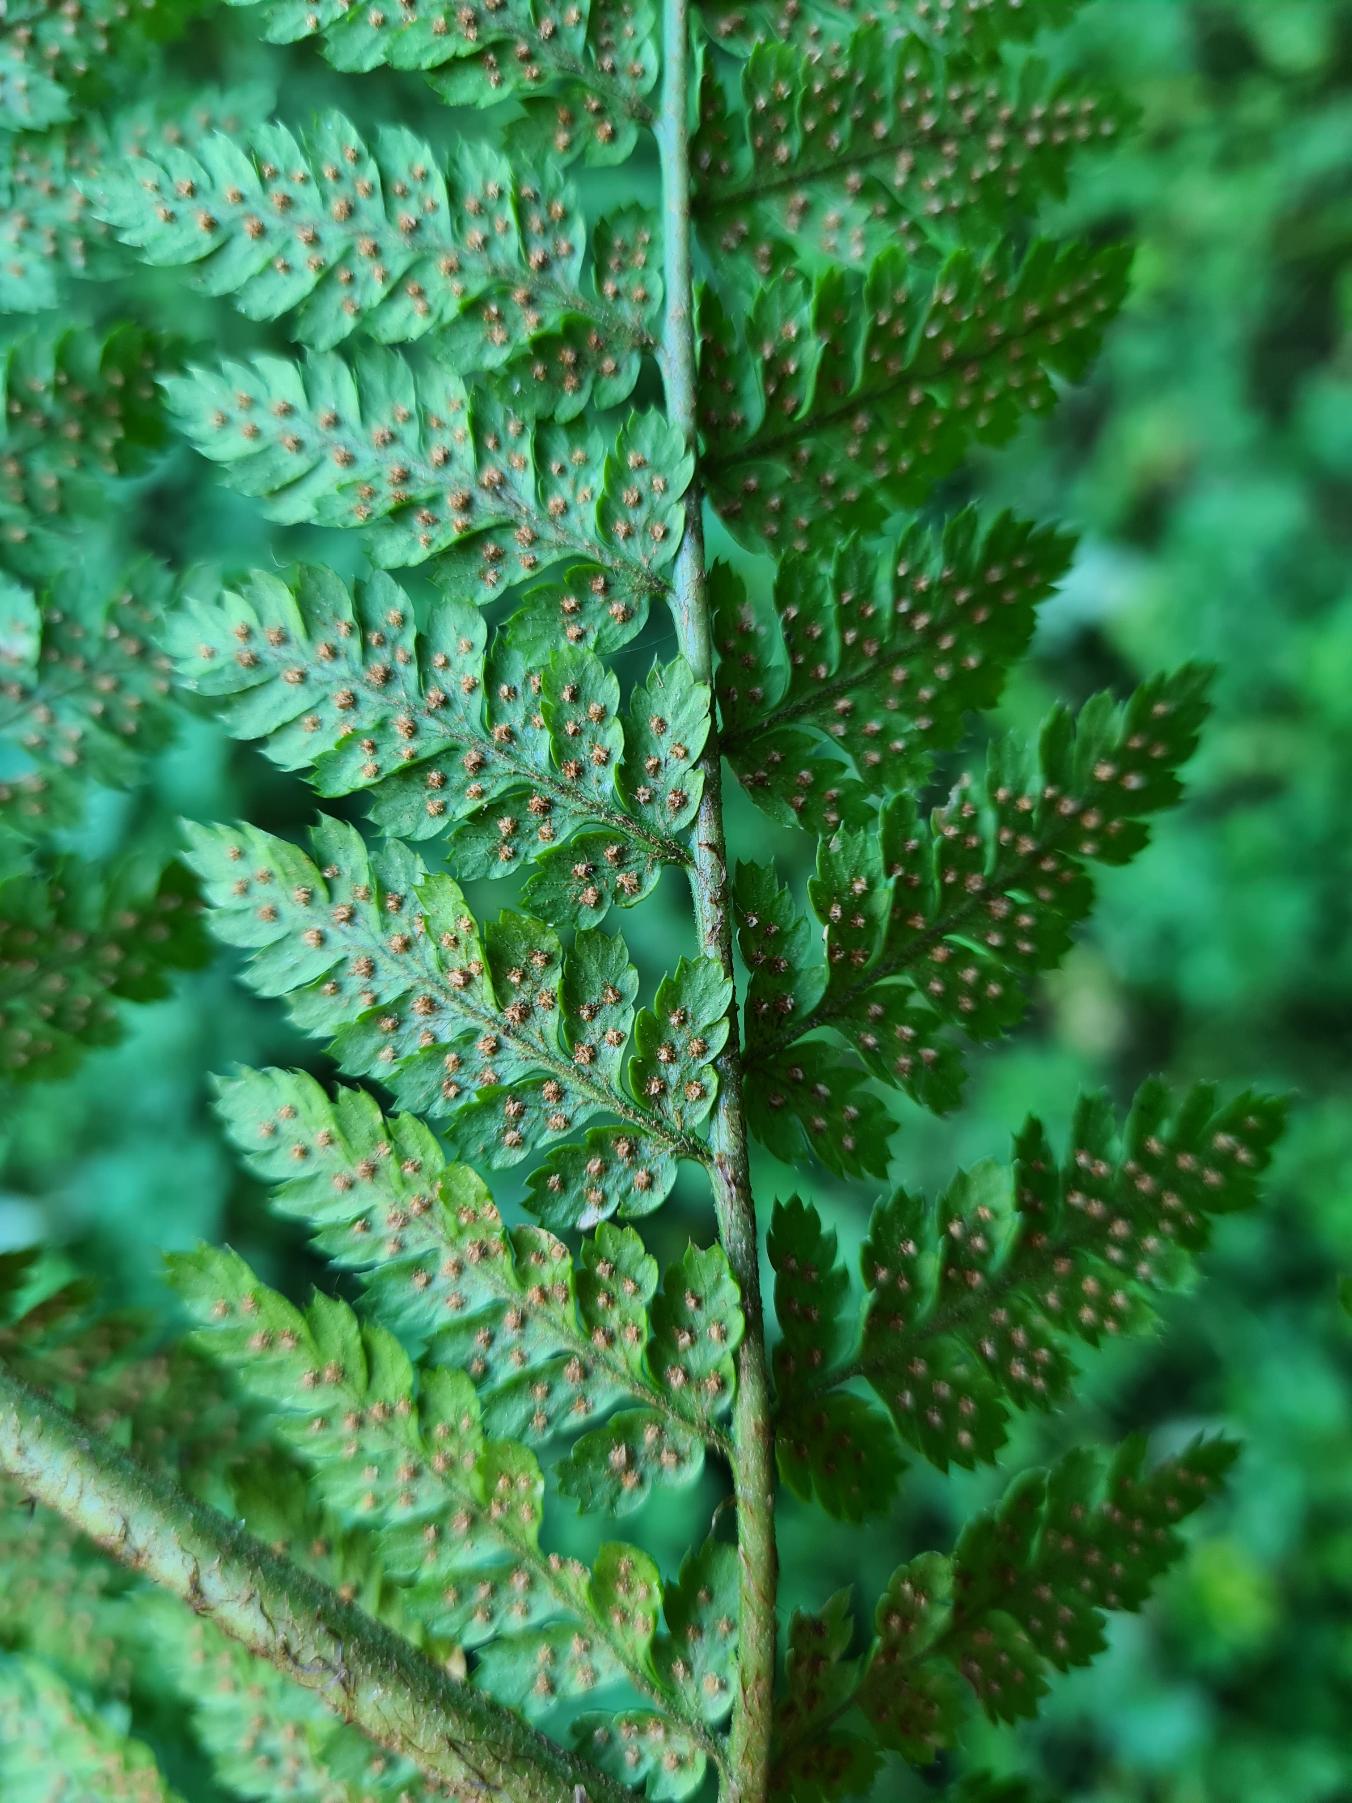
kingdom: Plantae
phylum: Tracheophyta
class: Polypodiopsida
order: Polypodiales
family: Dryopteridaceae
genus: Dryopteris
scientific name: Dryopteris dilatata
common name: Bredbladet mangeløv
